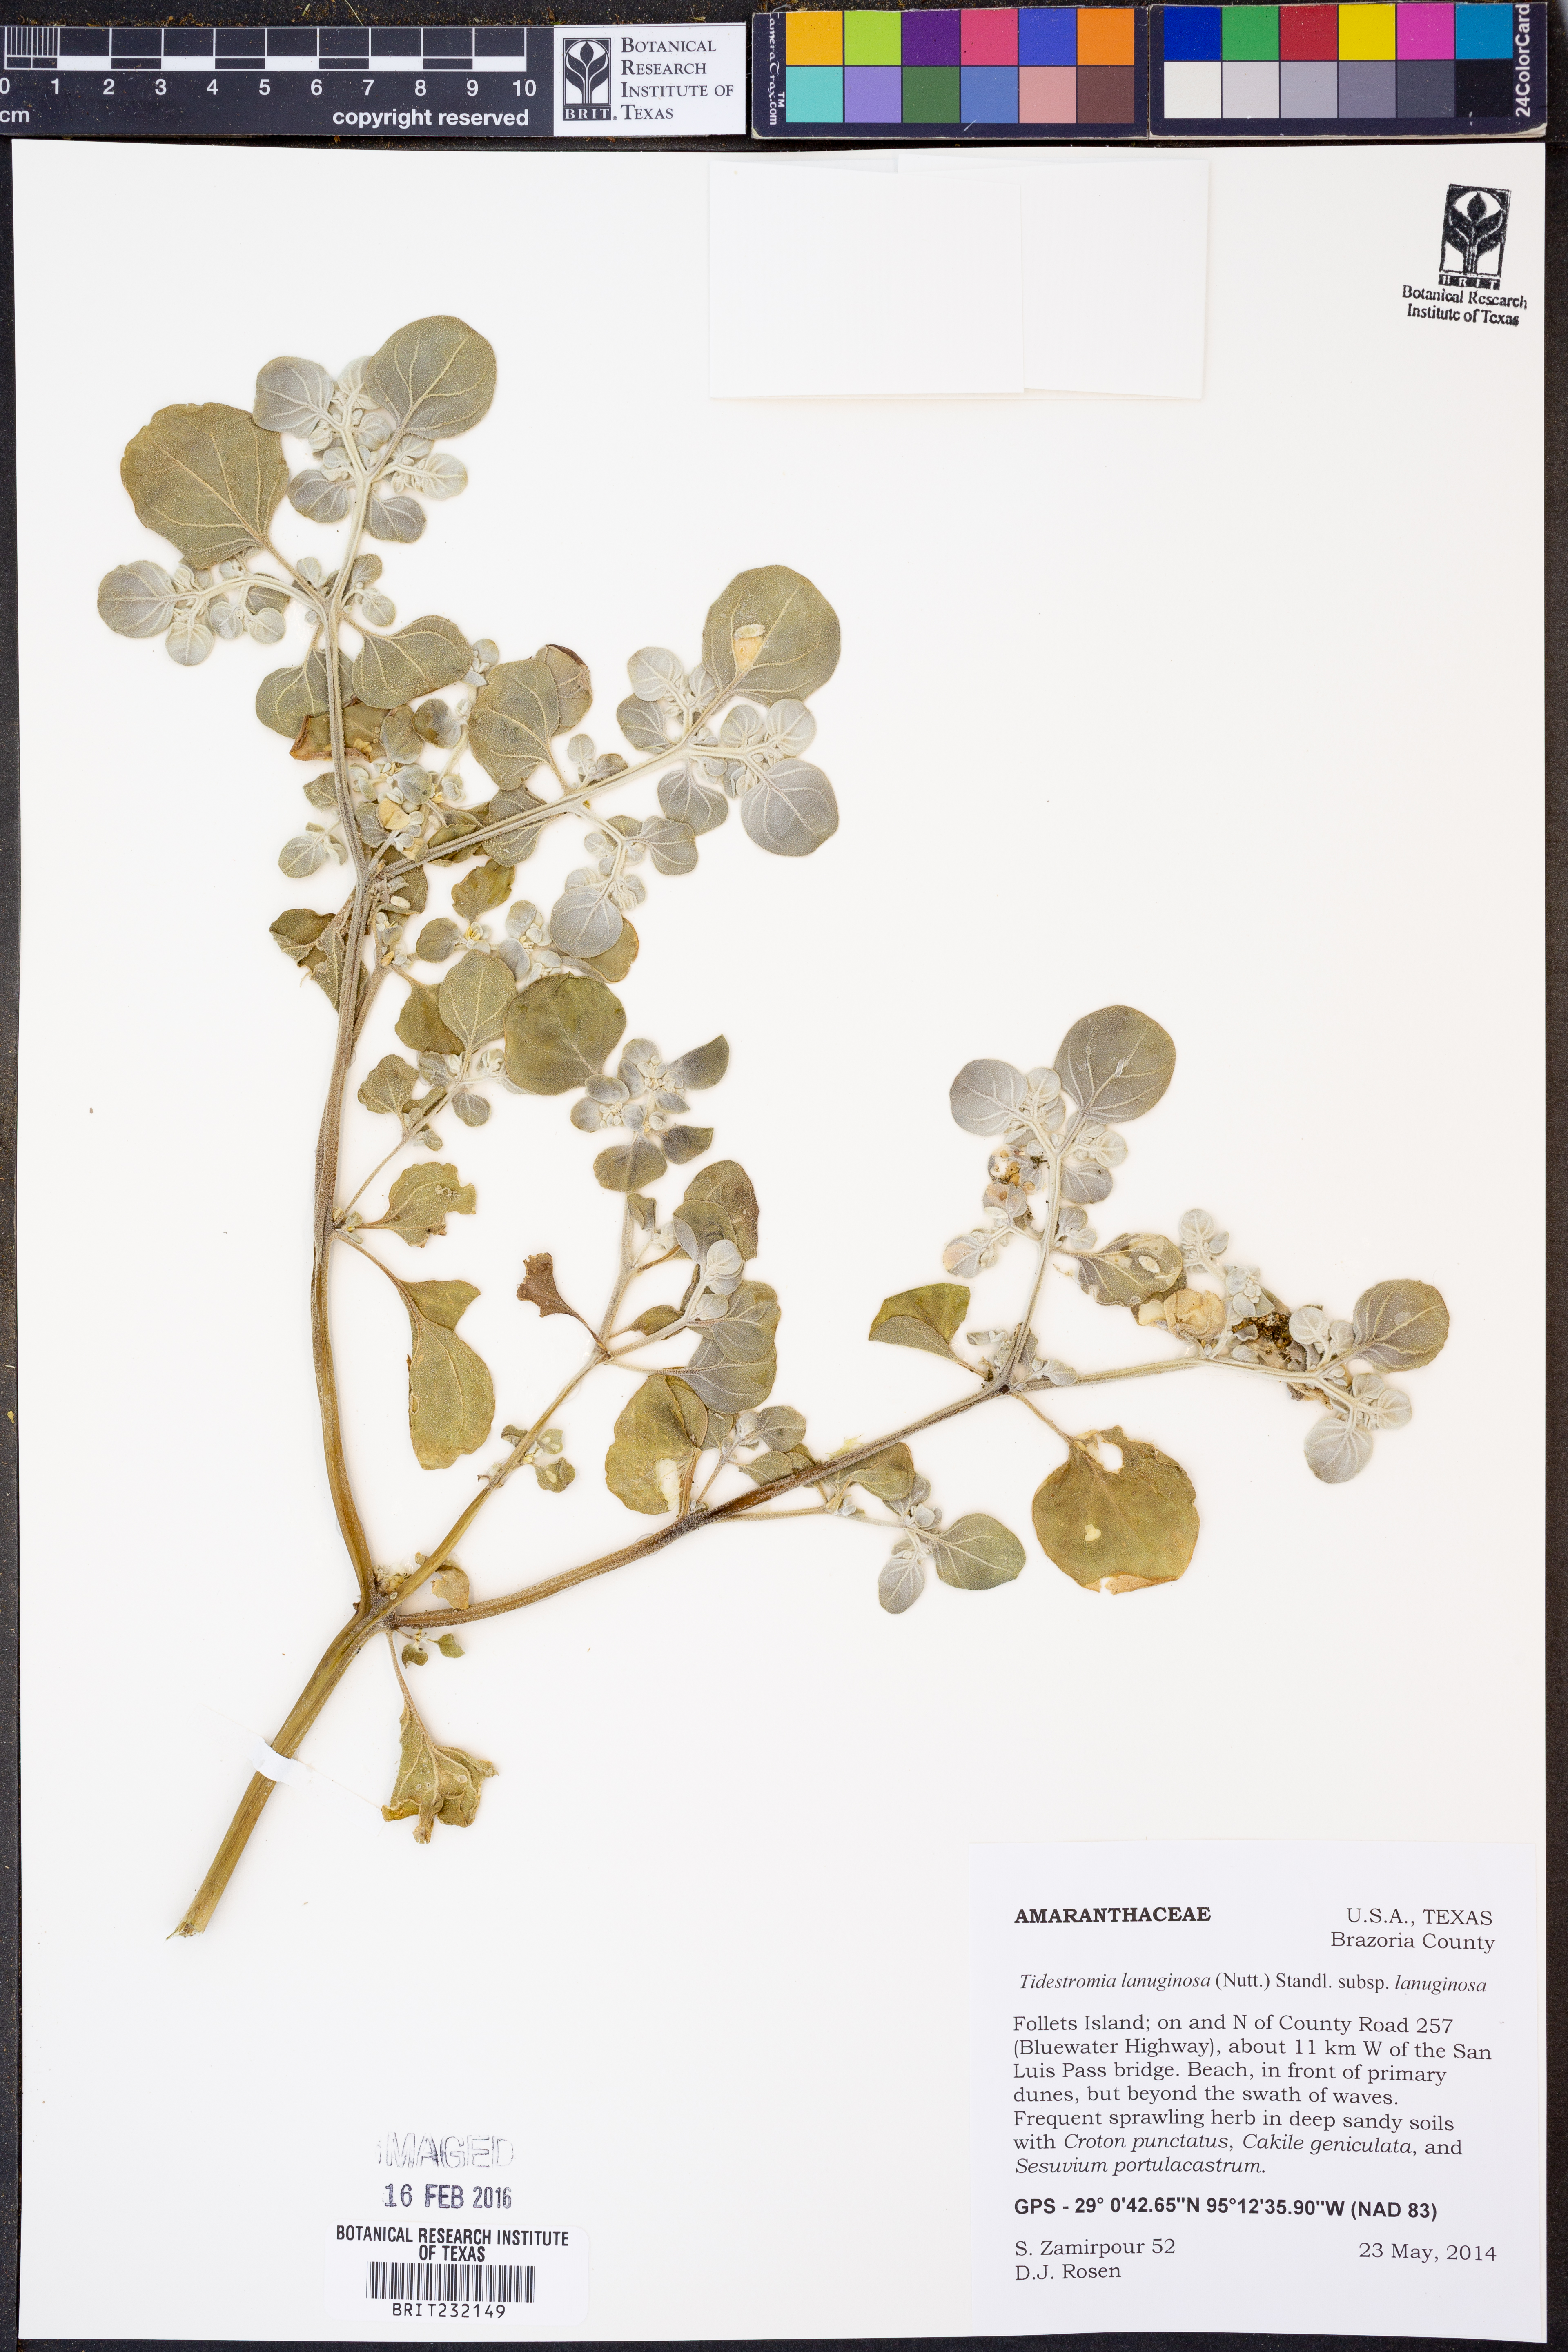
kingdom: Plantae
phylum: Tracheophyta
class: Magnoliopsida
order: Caryophyllales
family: Amaranthaceae
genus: Tidestromia
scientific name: Tidestromia lanuginosa
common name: Woolly tidestromia
